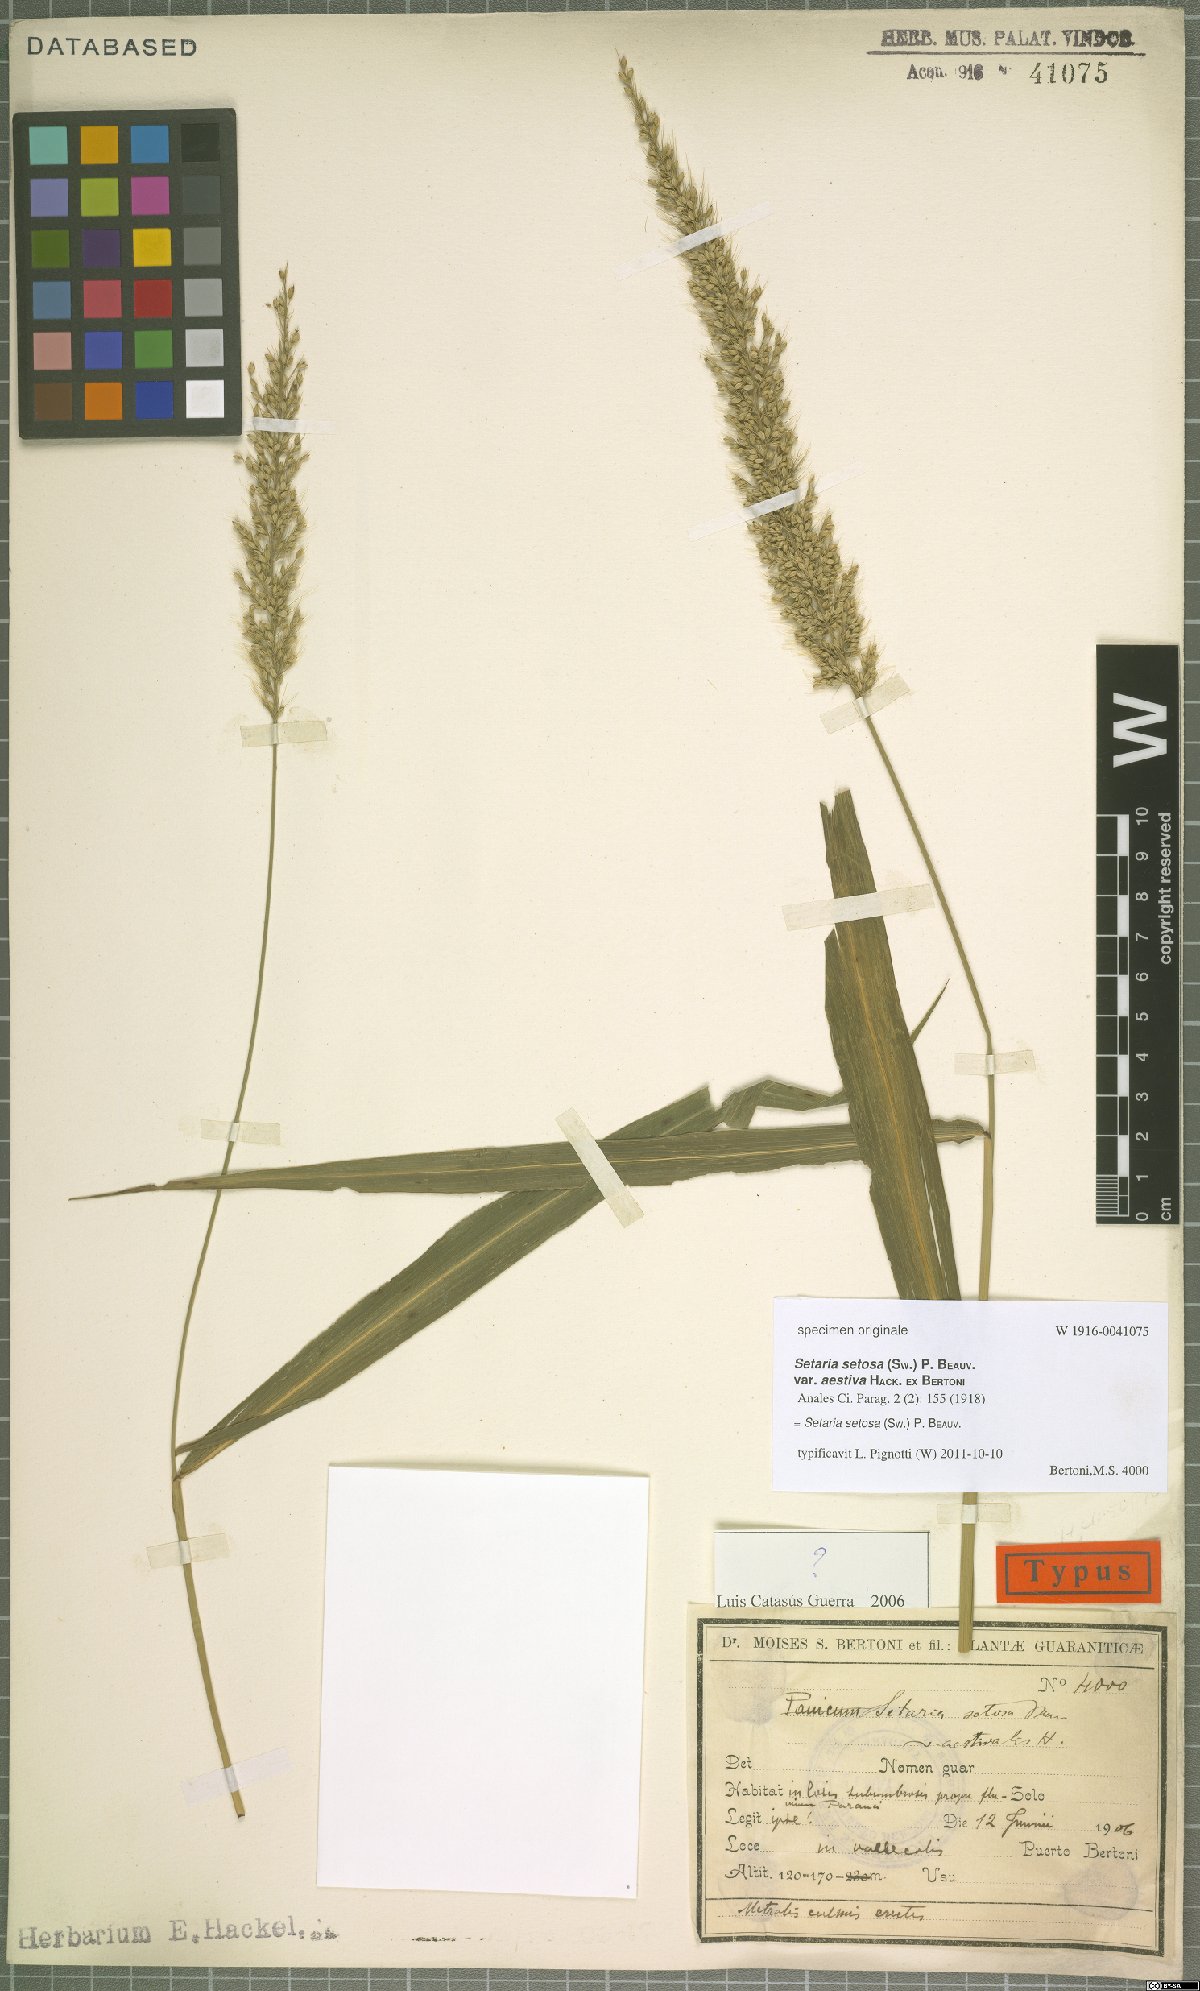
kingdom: Plantae
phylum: Tracheophyta
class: Liliopsida
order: Poales
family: Poaceae
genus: Setaria
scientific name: Setaria setosa
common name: West indies bristle grass
